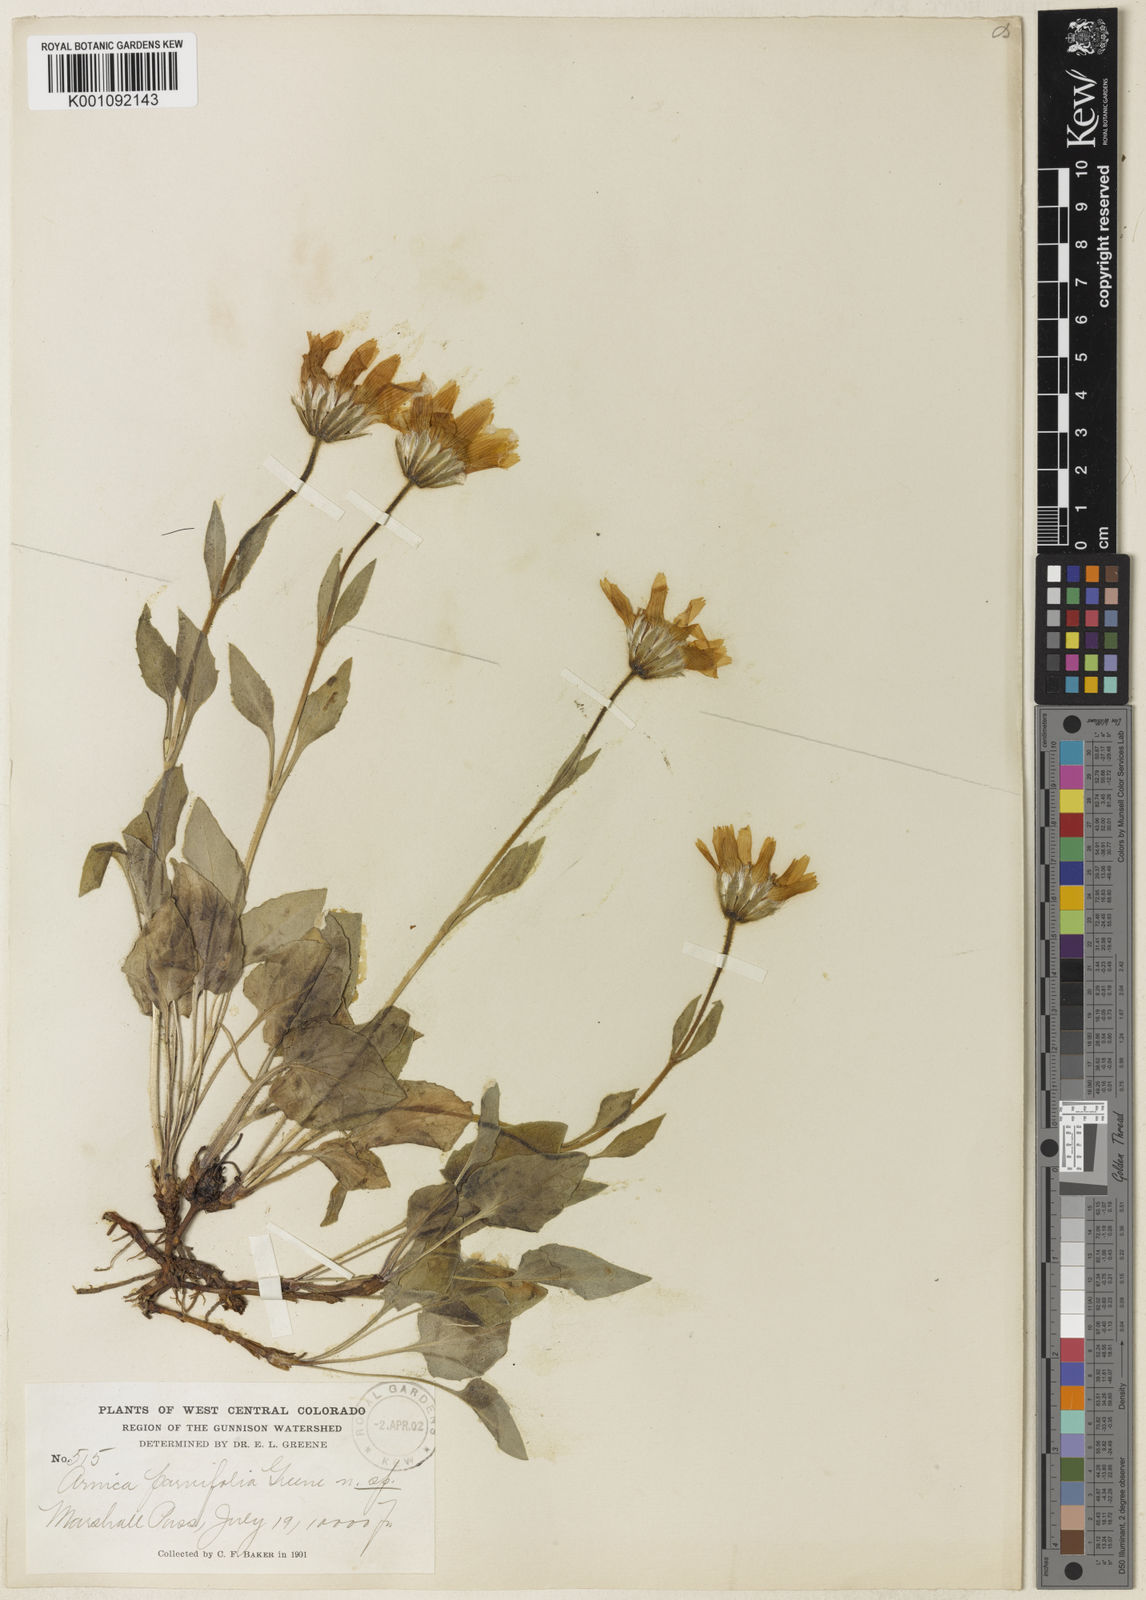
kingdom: Plantae
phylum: Tracheophyta
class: Magnoliopsida
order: Asterales
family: Asteraceae
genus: Arnica
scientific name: Arnica cordifolia
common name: Heart-leaf arnica
